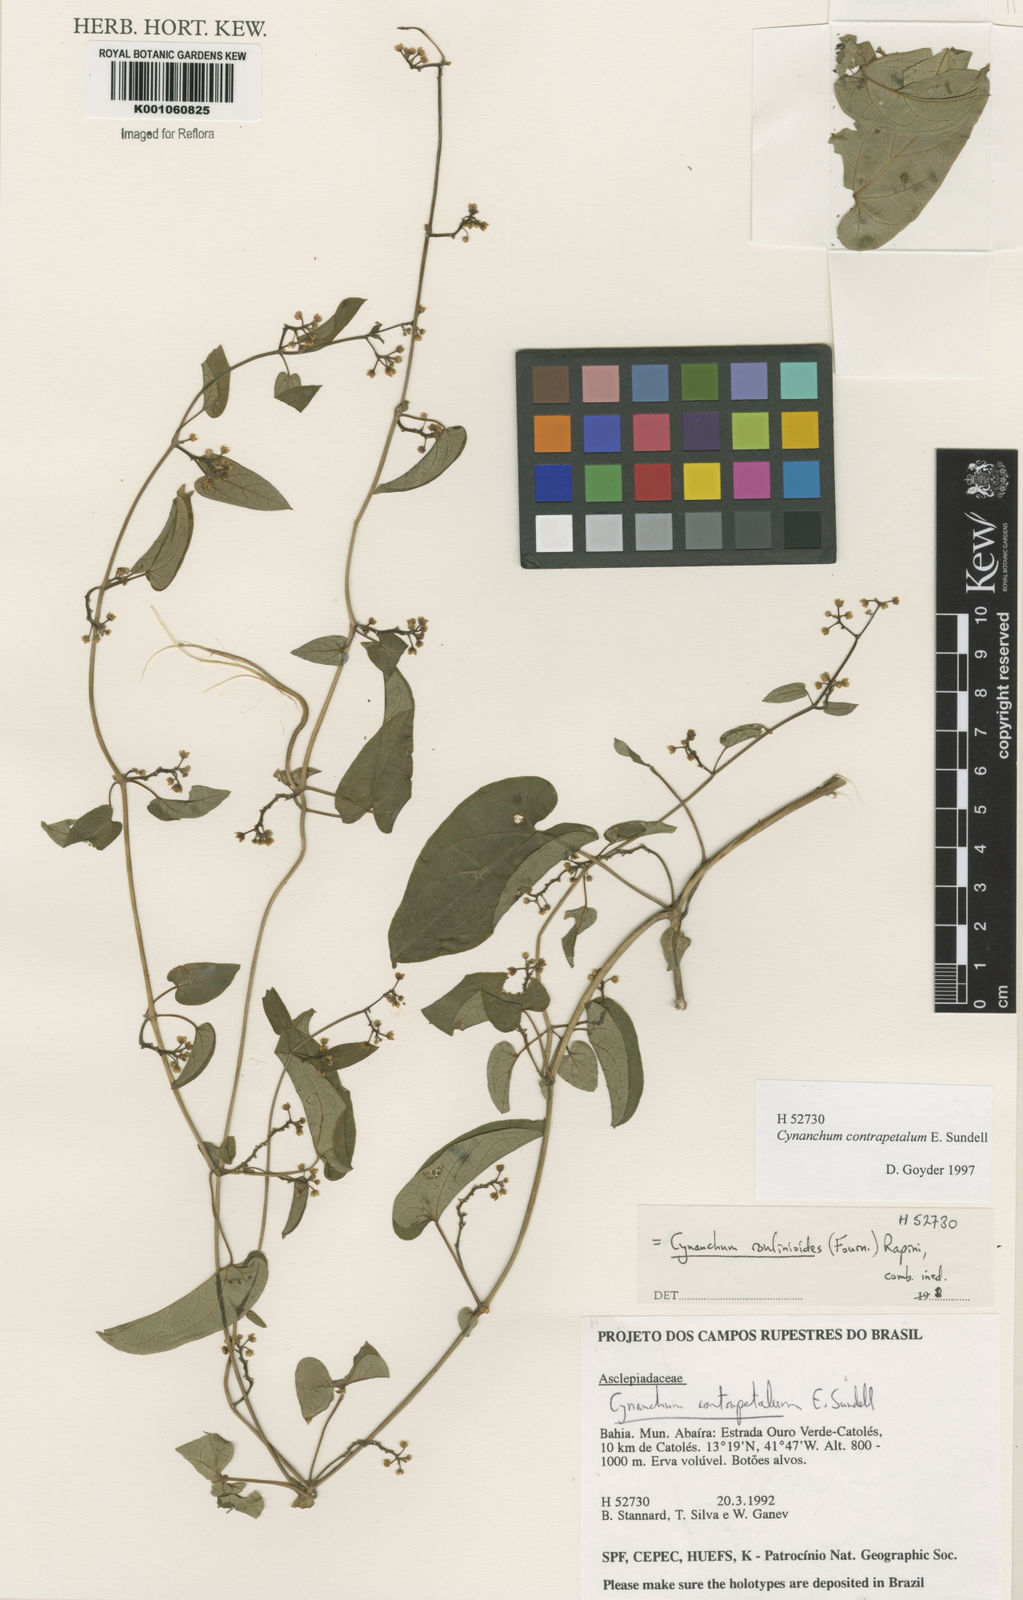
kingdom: Plantae
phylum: Tracheophyta
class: Magnoliopsida
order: Gentianales
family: Apocynaceae
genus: Cynanchum
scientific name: Cynanchum roulinioides
